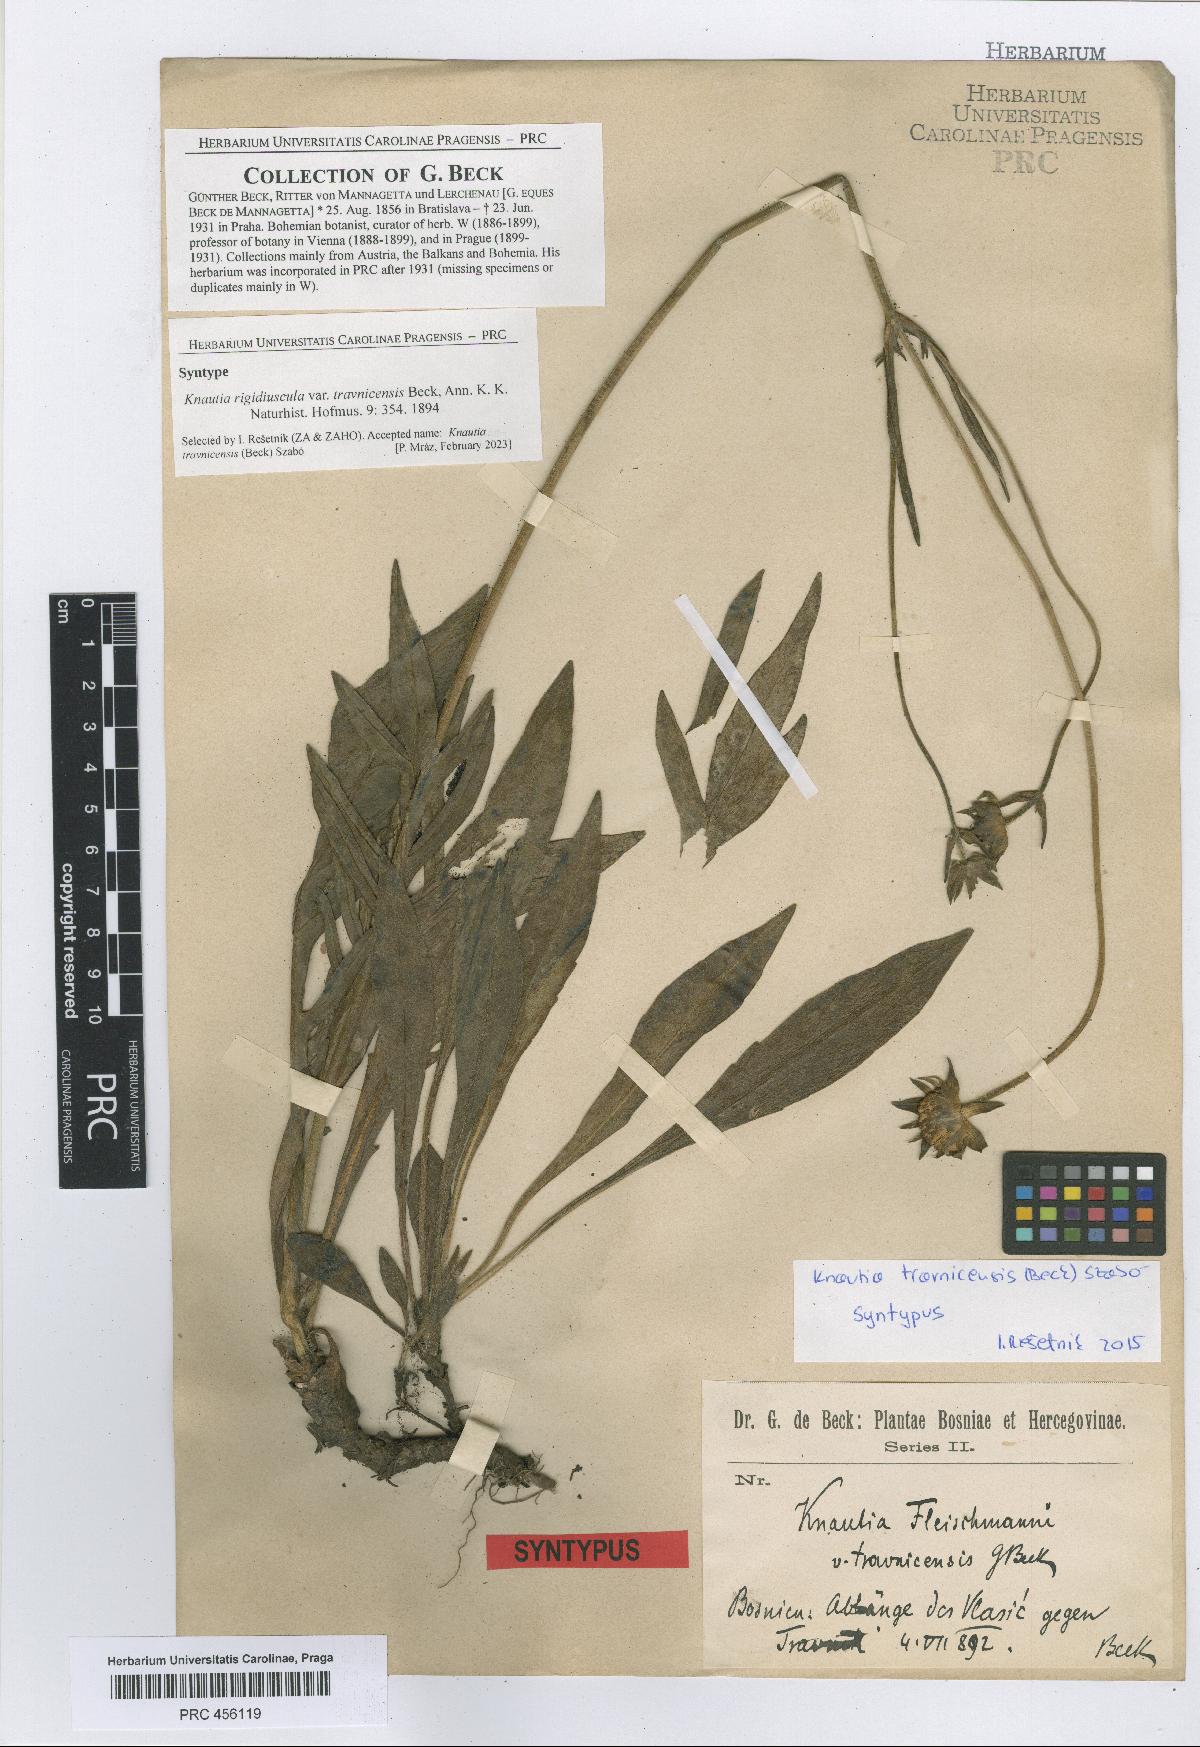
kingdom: Plantae
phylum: Tracheophyta
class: Magnoliopsida
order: Dipsacales
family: Caprifoliaceae
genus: Knautia
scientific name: Knautia travnicensis
